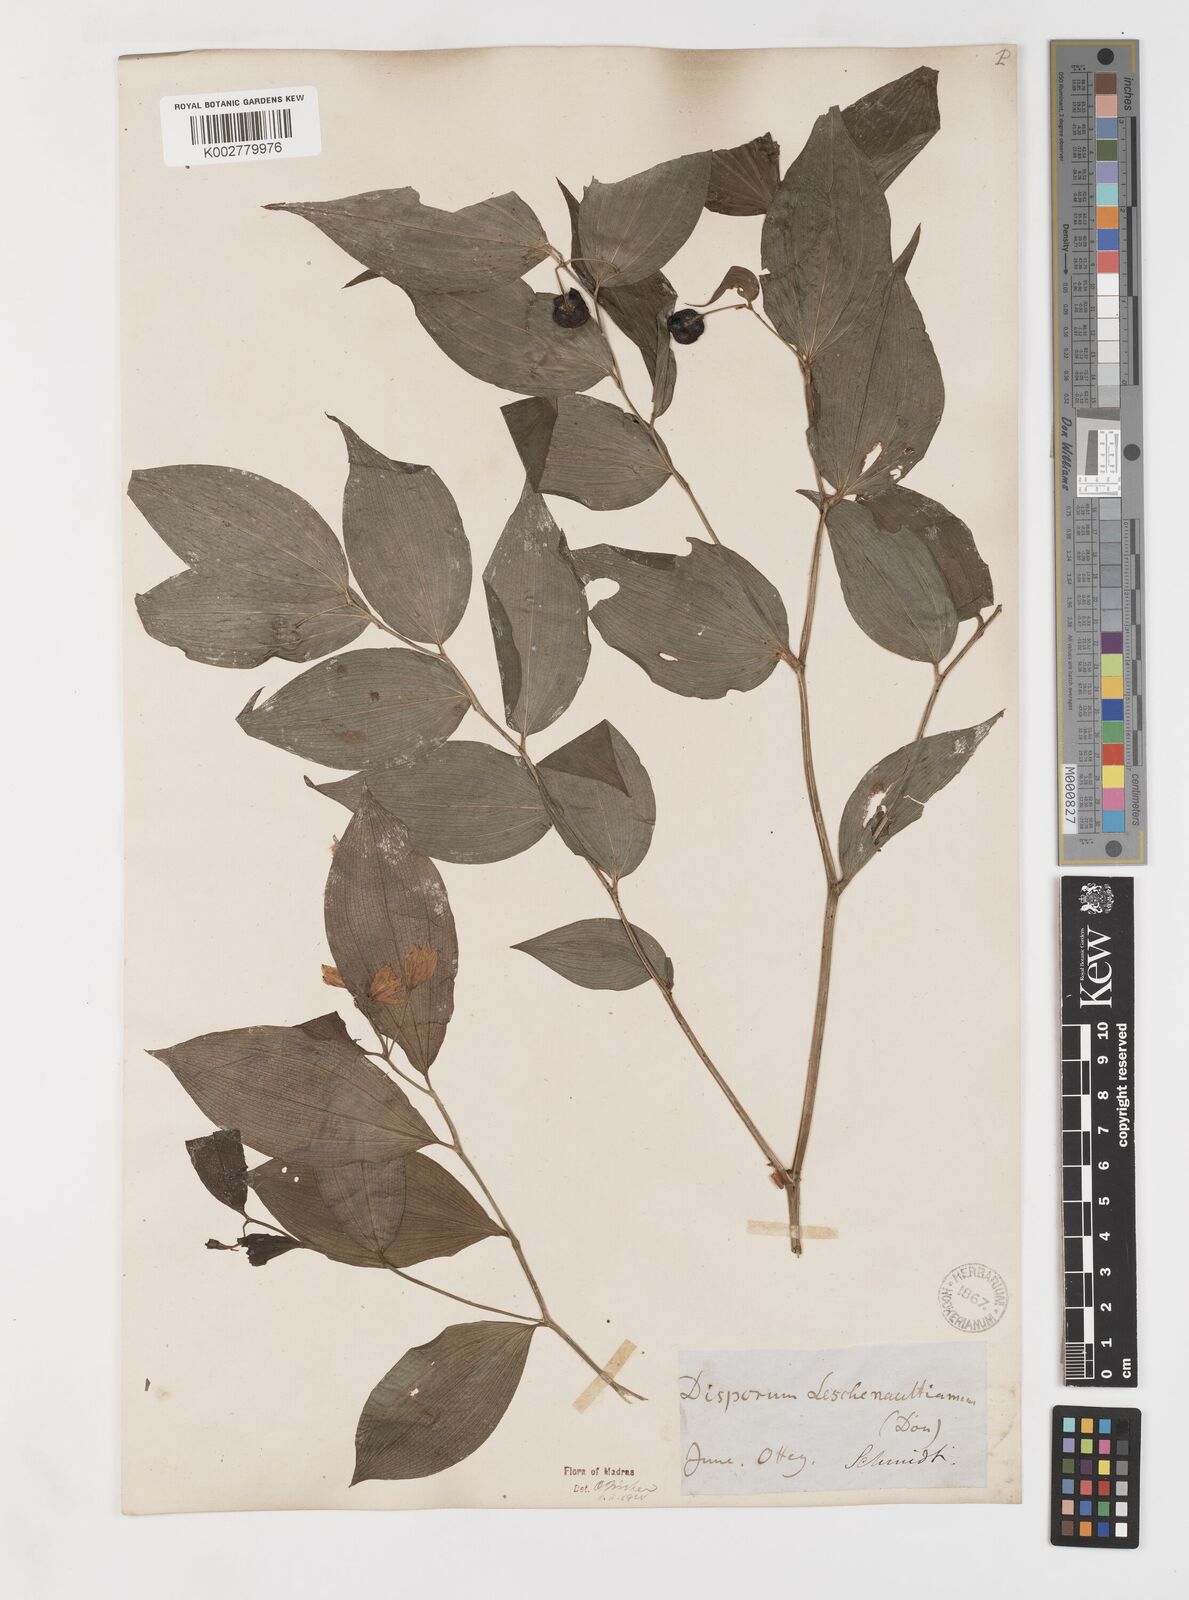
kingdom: Plantae
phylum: Tracheophyta
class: Liliopsida
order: Liliales
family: Colchicaceae
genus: Disporum
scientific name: Disporum cantoniense
